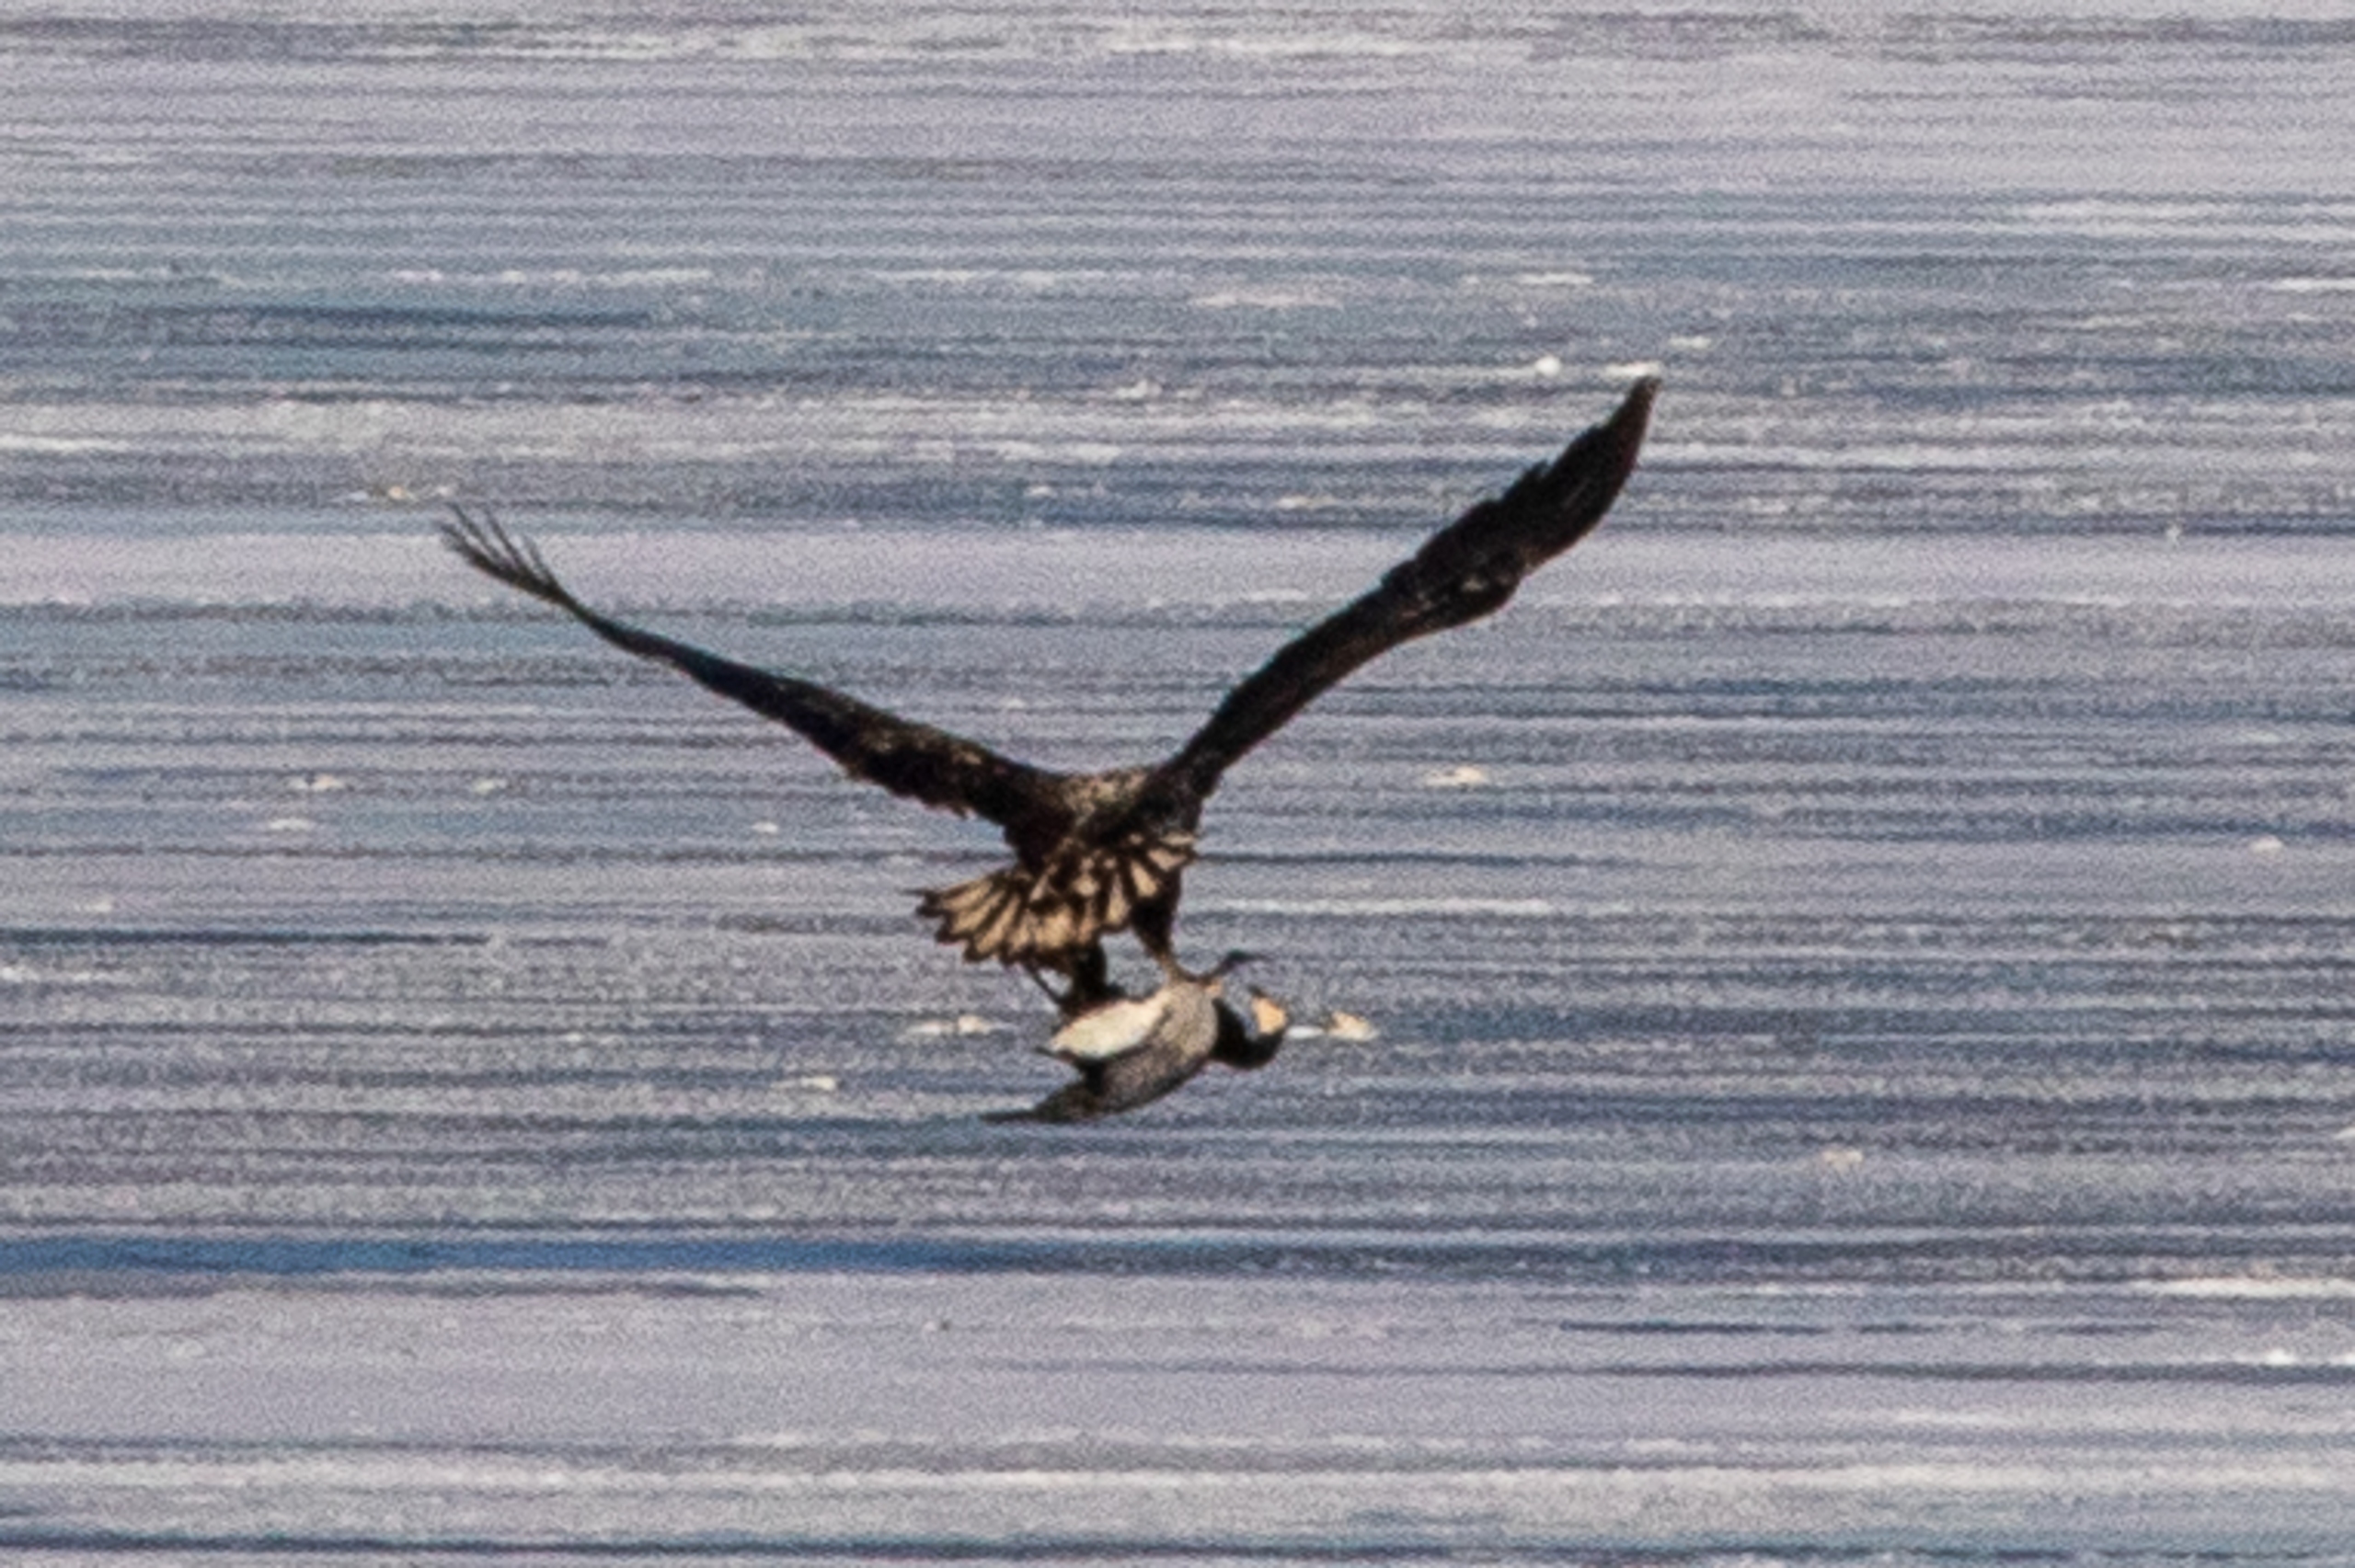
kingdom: Animalia
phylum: Chordata
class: Aves
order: Accipitriformes
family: Accipitridae
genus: Haliaeetus
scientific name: Haliaeetus albicilla
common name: Havørn
